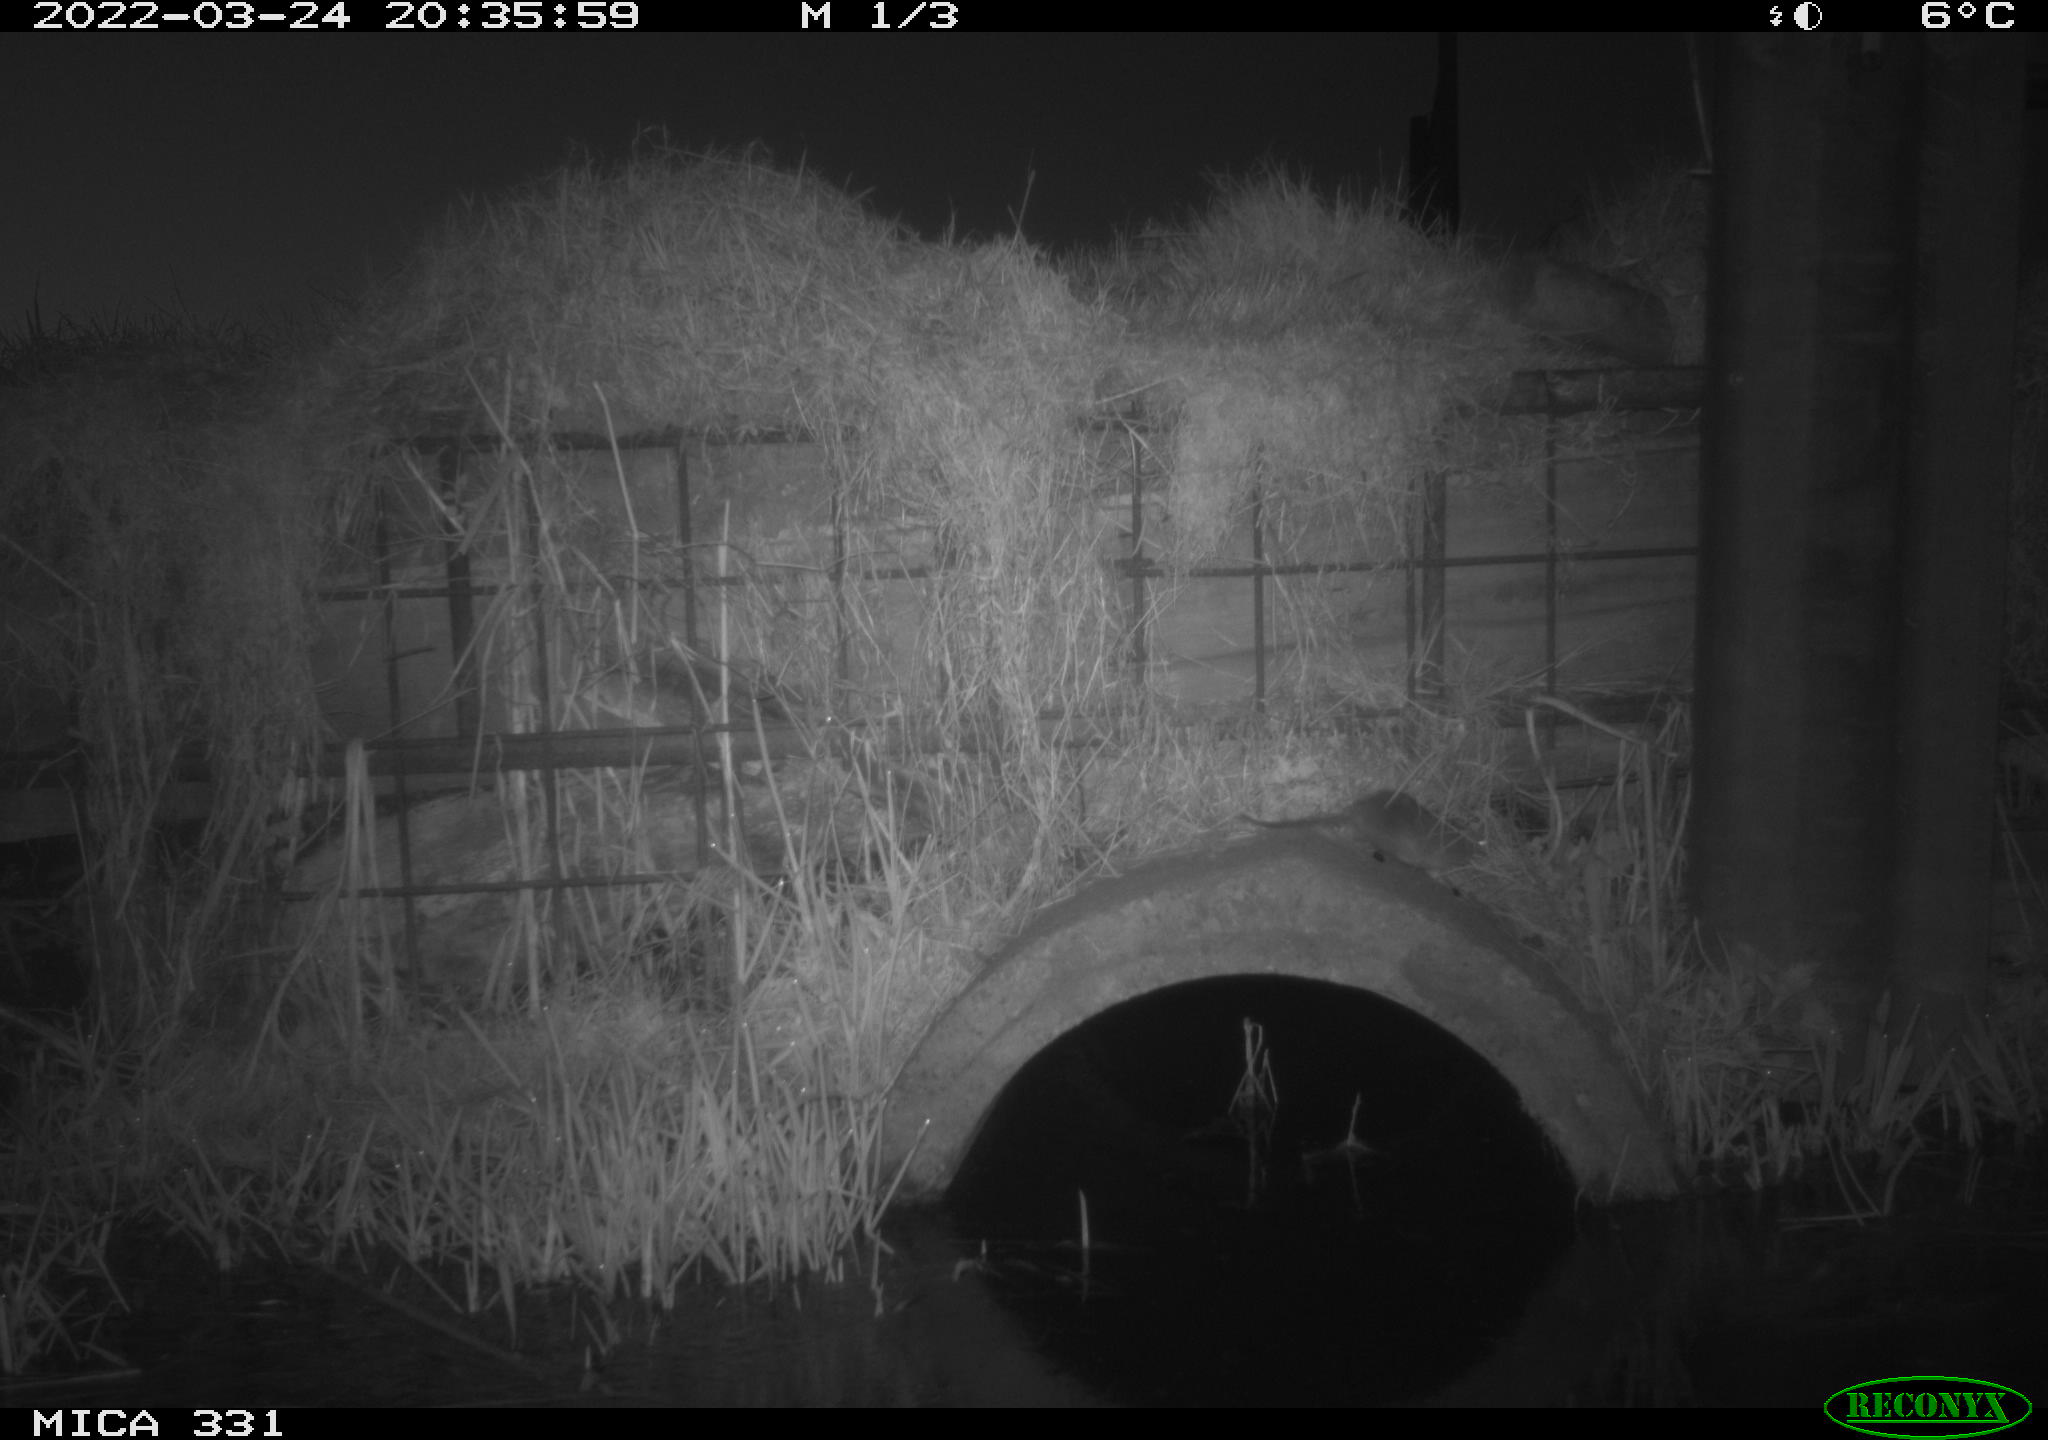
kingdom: Animalia
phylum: Chordata
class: Mammalia
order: Rodentia
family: Muridae
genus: Rattus
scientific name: Rattus norvegicus
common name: Brown rat
